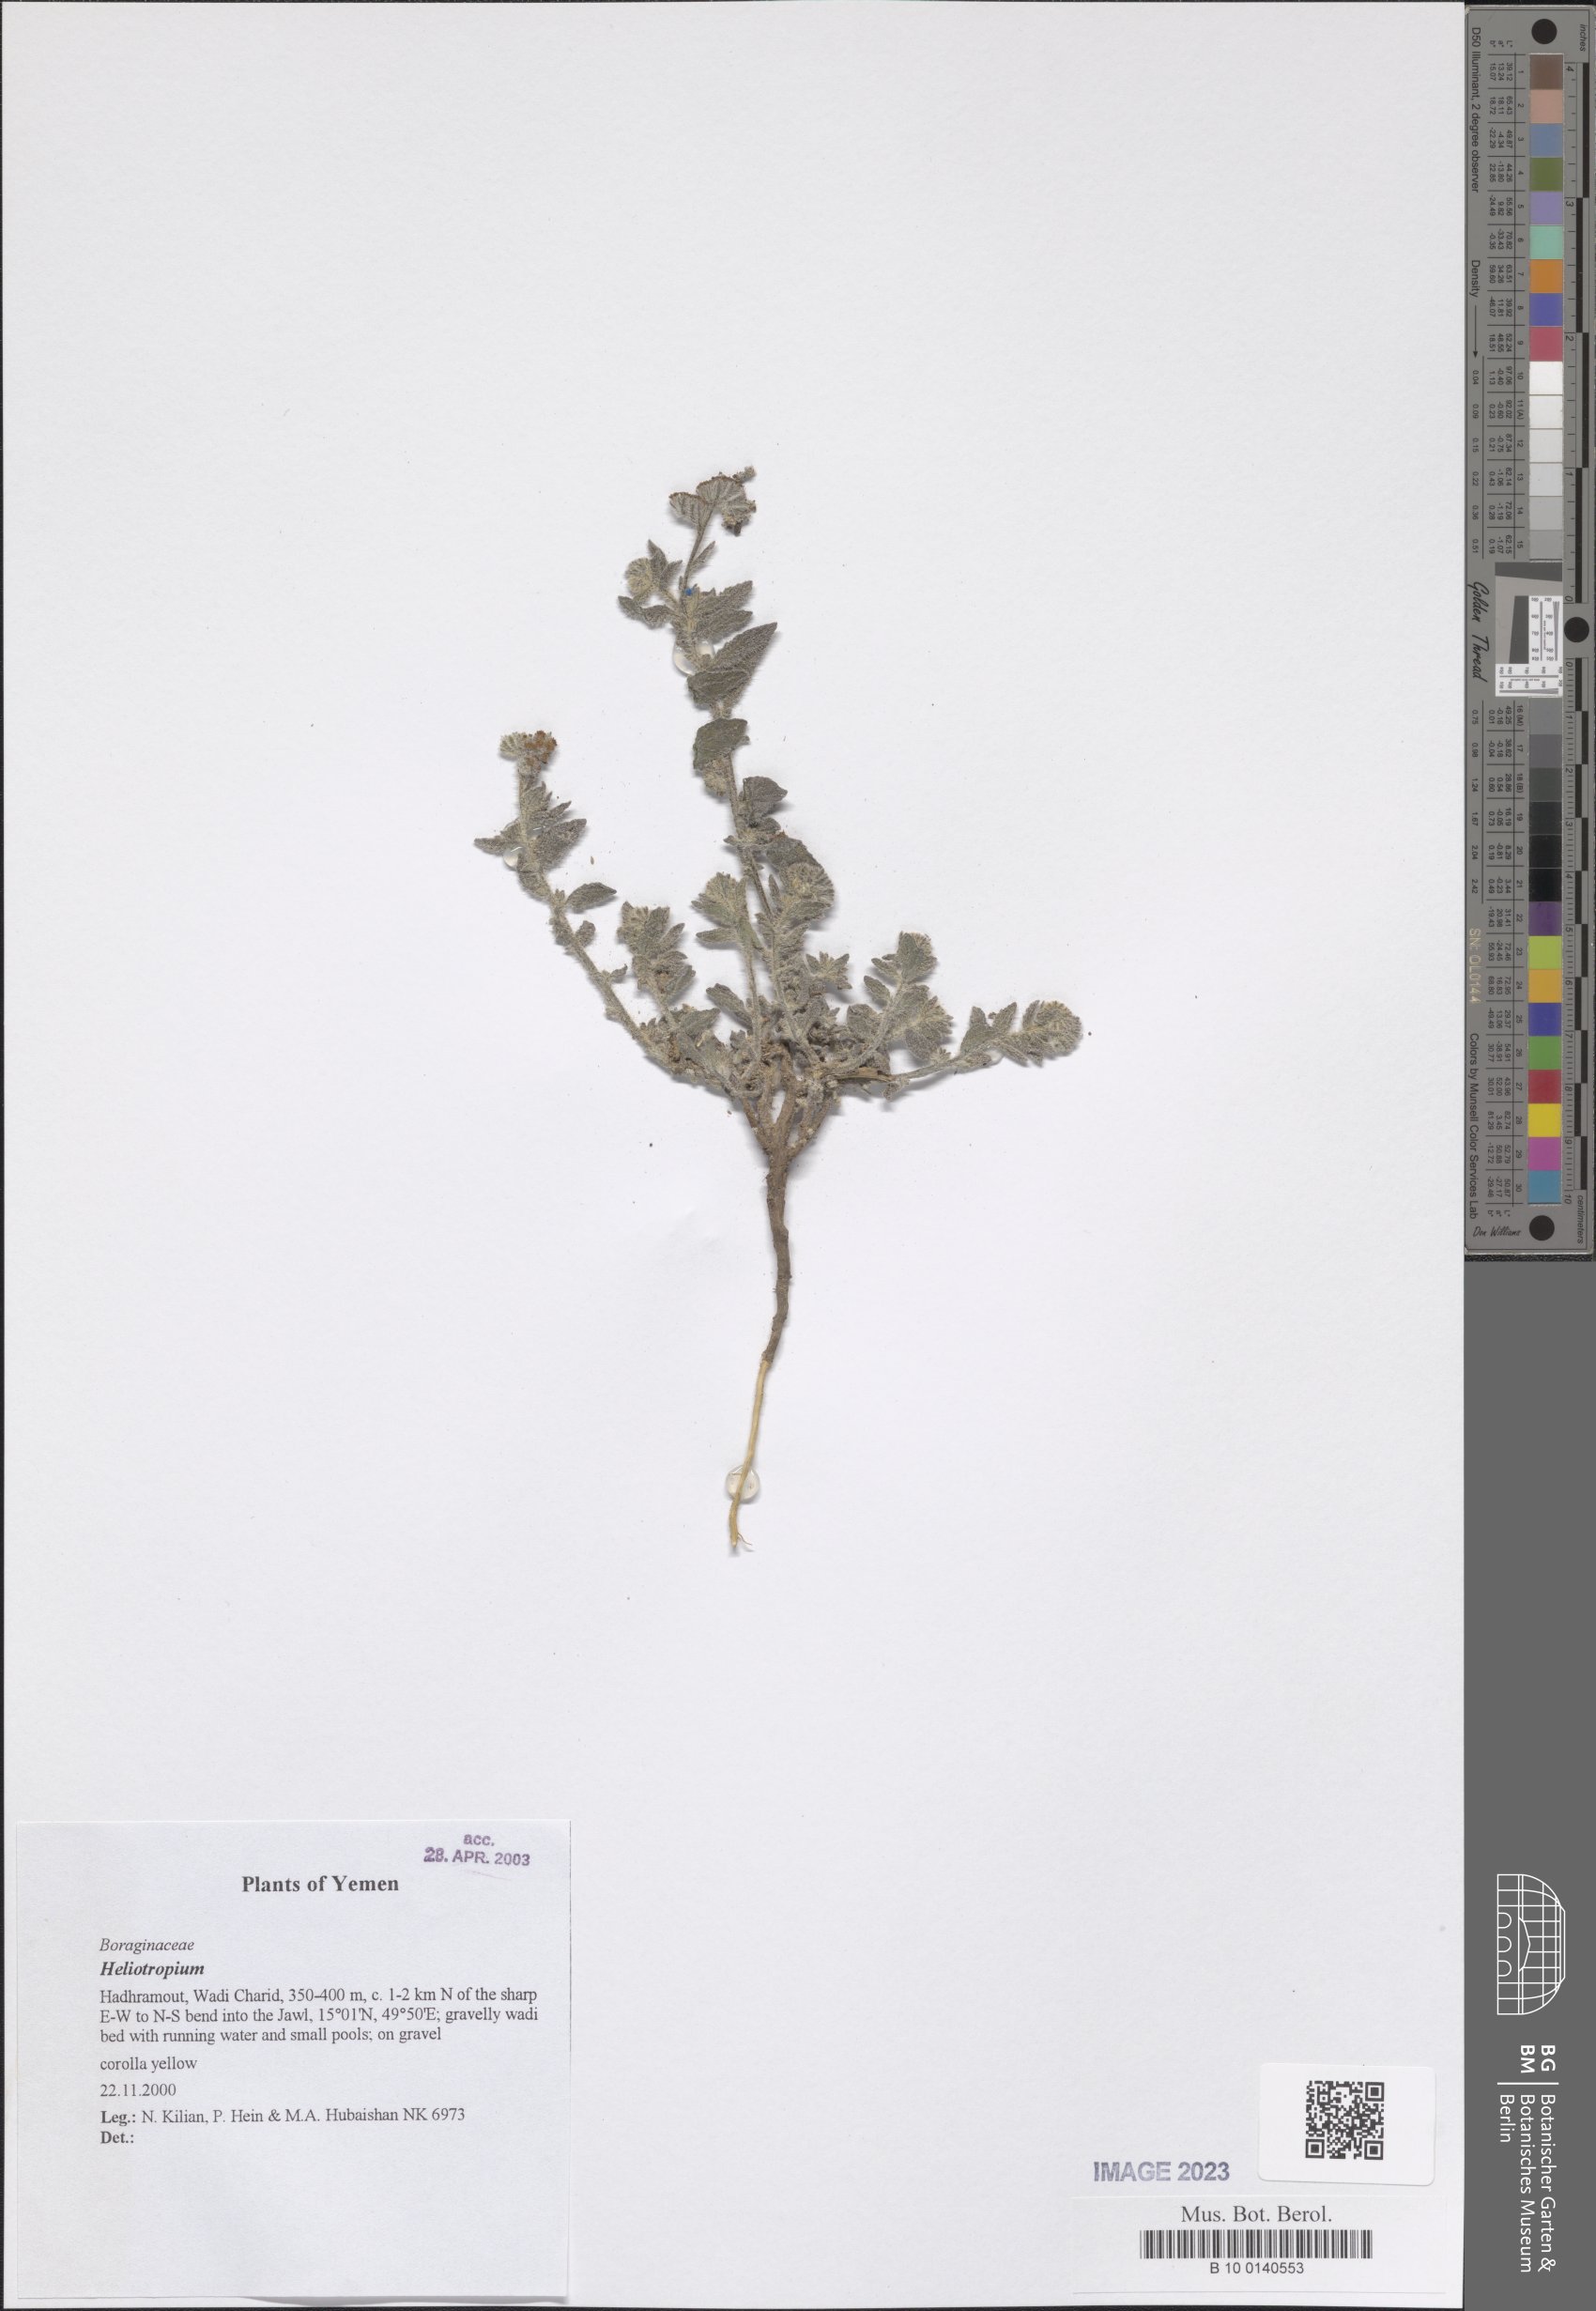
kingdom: Plantae
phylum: Tracheophyta
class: Magnoliopsida
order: Boraginales
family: Heliotropiaceae
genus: Heliotropium
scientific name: Heliotropium
